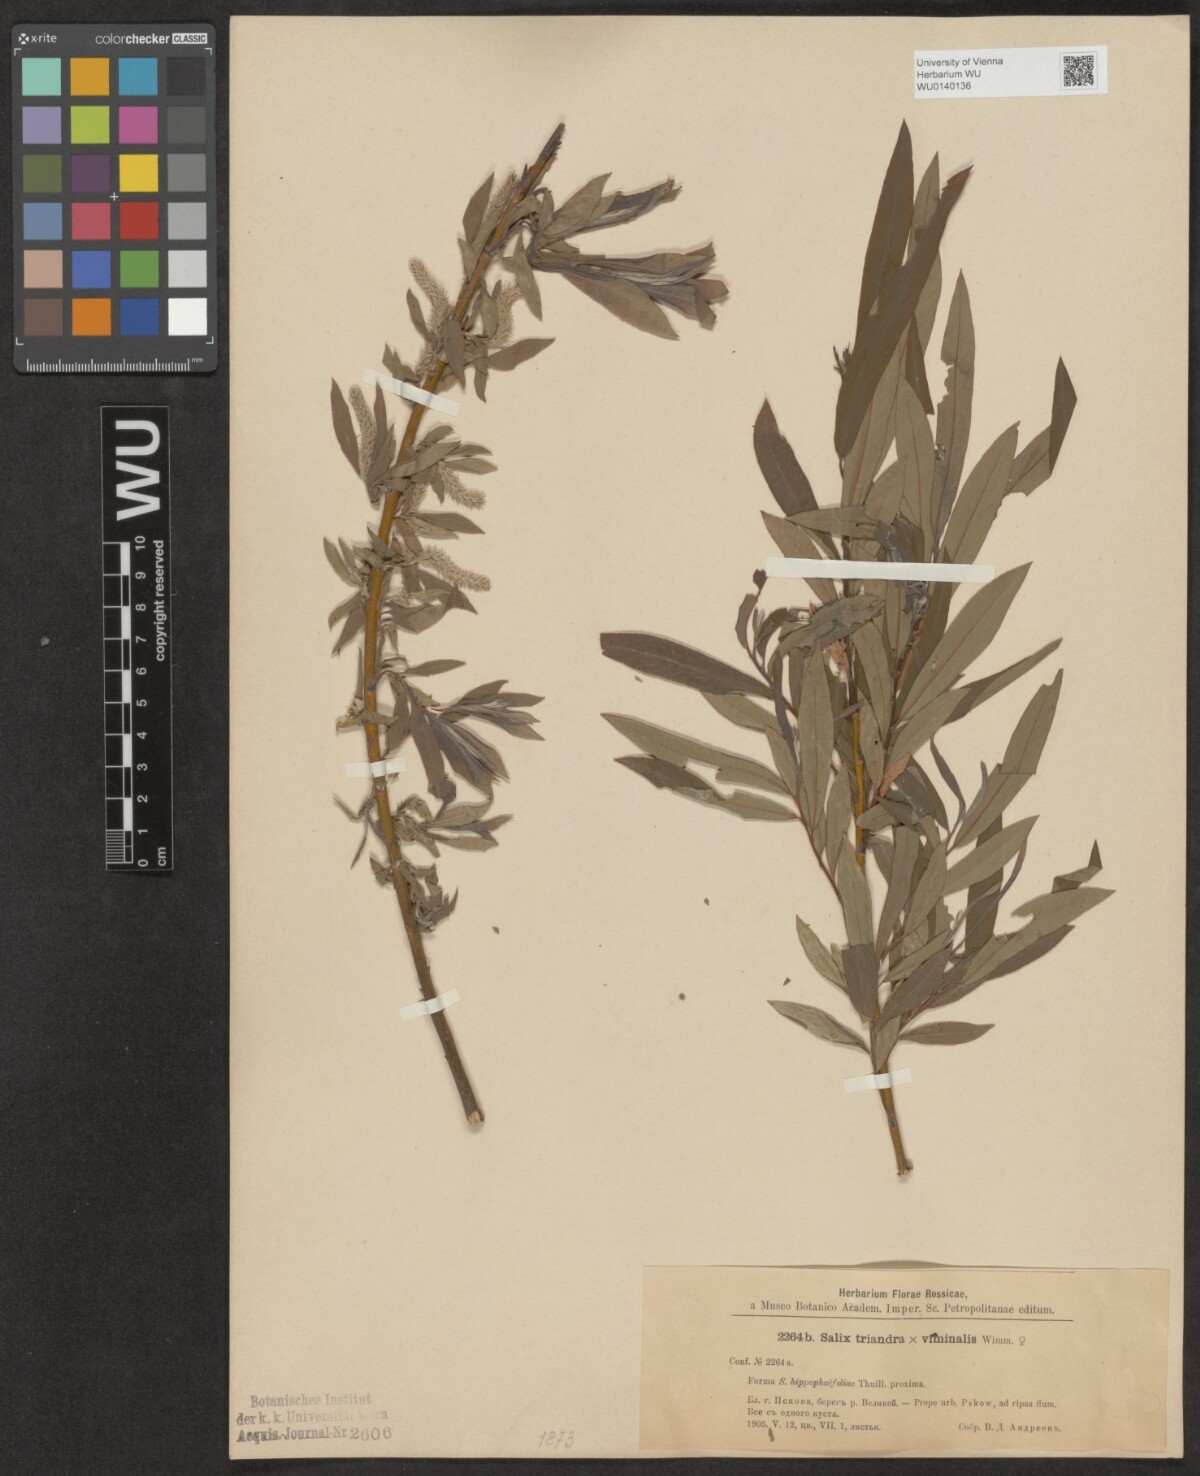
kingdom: Plantae
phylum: Tracheophyta
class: Magnoliopsida
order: Malpighiales
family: Salicaceae
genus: Salix
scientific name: Salix mollissima
